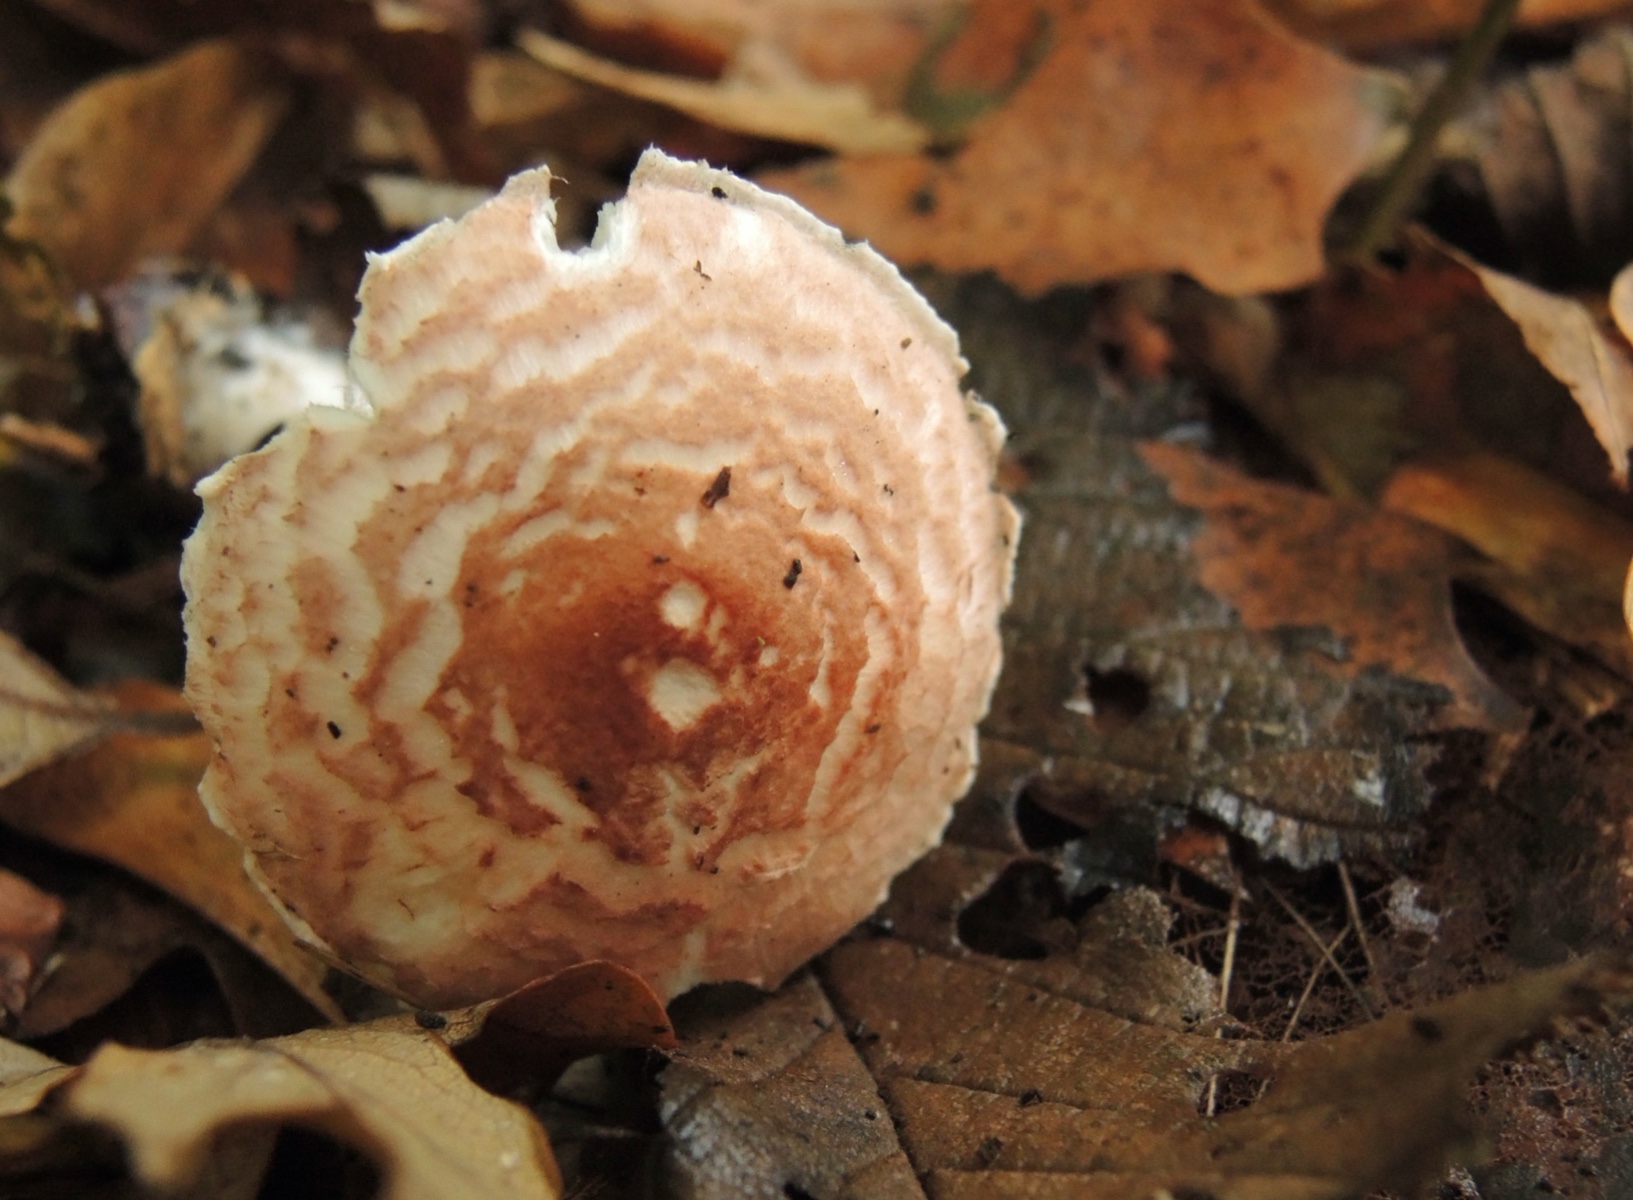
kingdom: Fungi
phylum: Basidiomycota
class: Agaricomycetes
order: Agaricales
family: Agaricaceae
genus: Lepiota
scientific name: Lepiota subincarnata
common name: kødfarvet parasolhat
